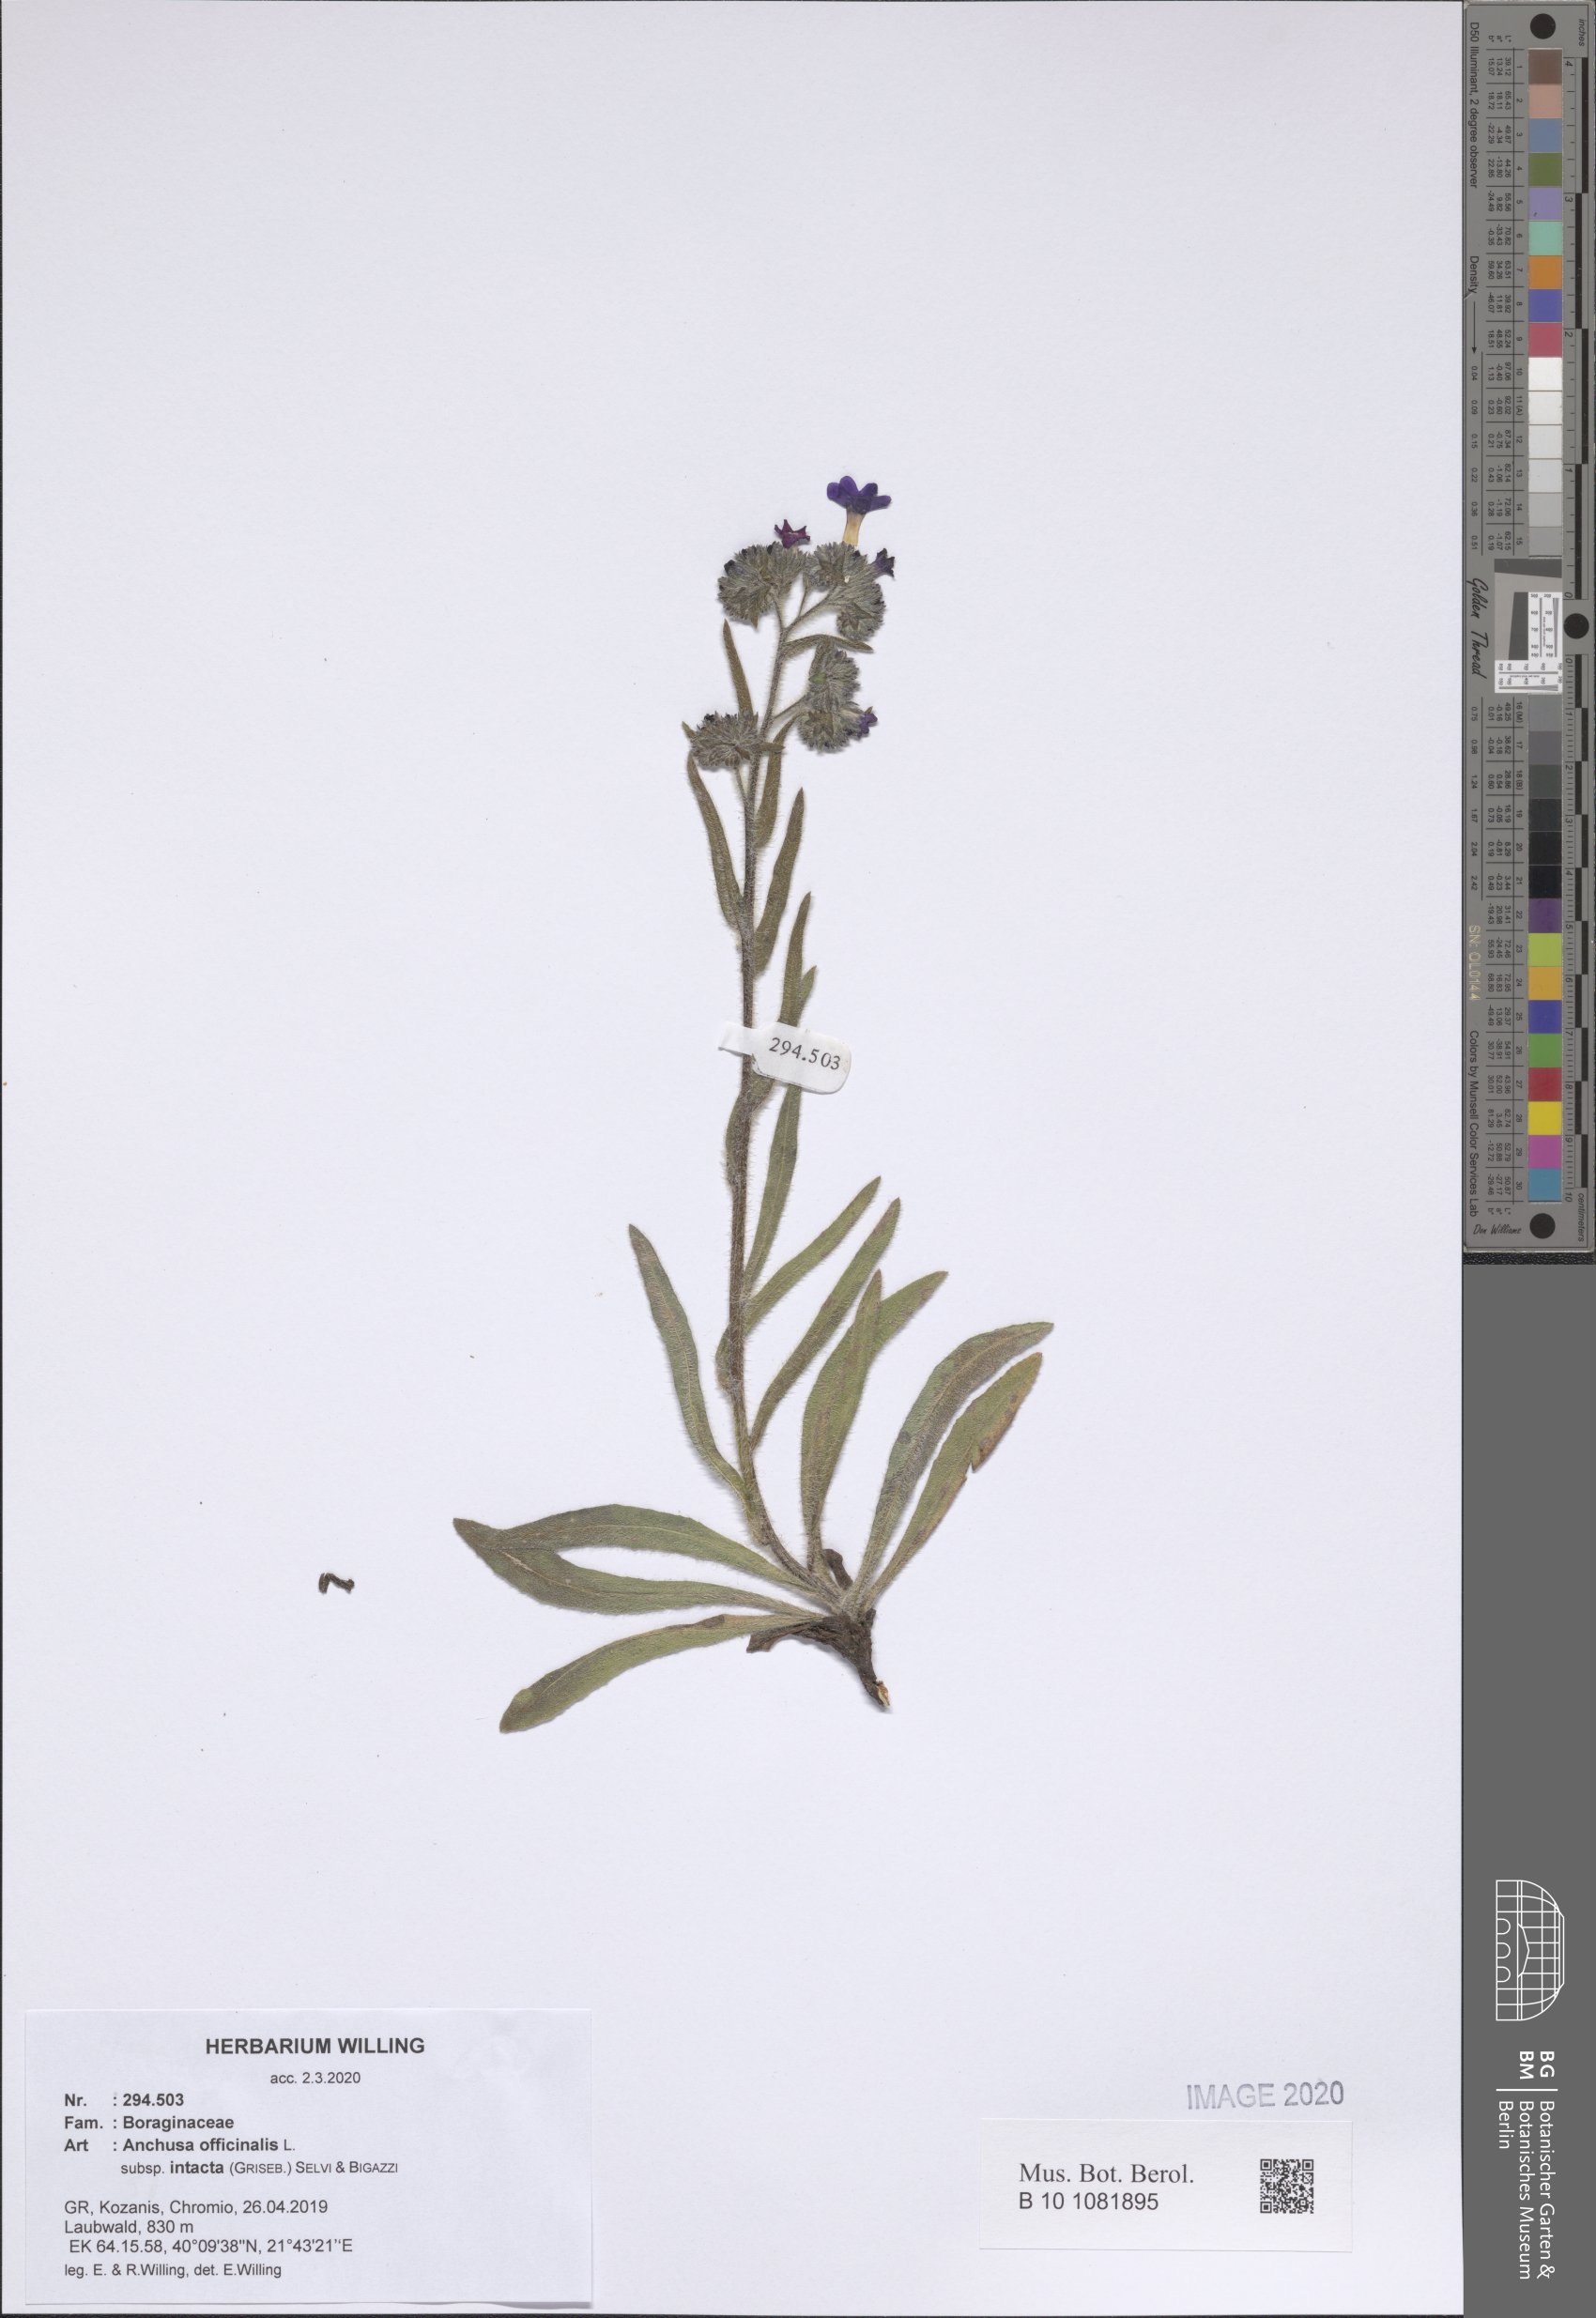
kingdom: Plantae
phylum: Tracheophyta
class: Magnoliopsida
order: Boraginales
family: Boraginaceae
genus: Anchusa
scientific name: Anchusa officinalis
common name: Alkanet
